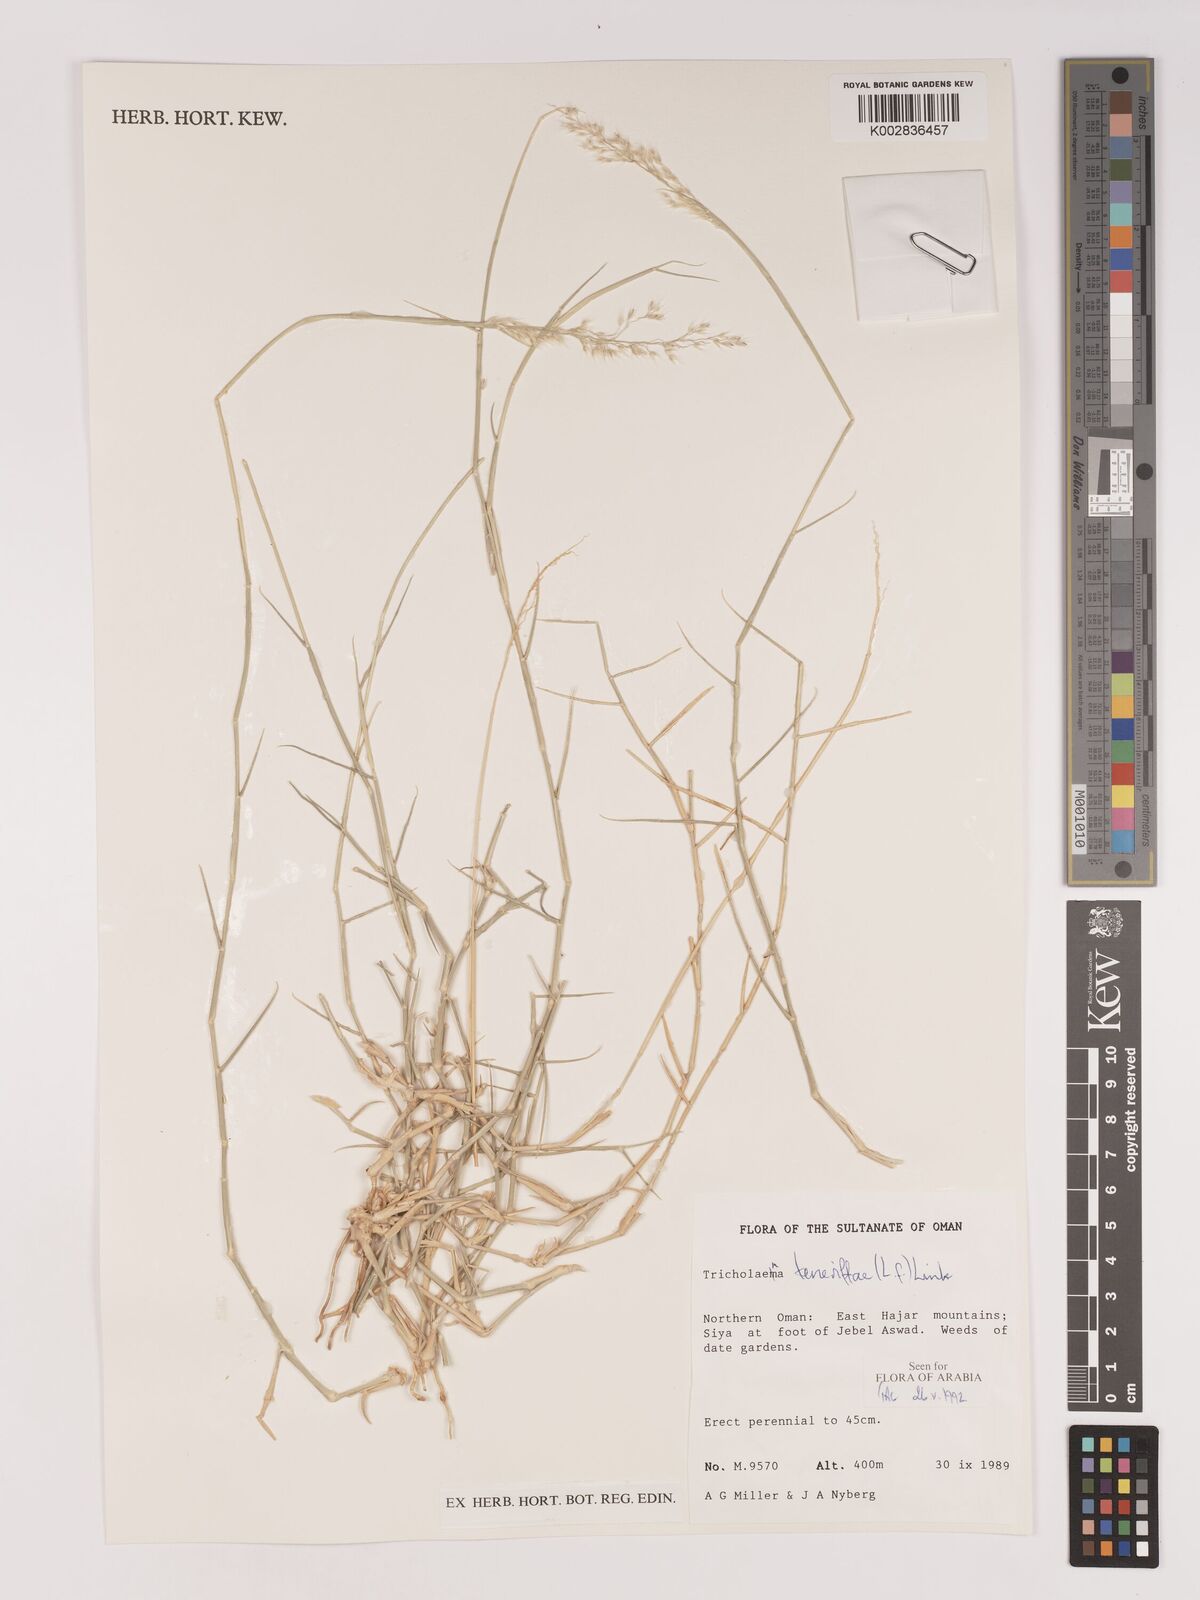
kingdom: Plantae
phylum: Tracheophyta
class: Liliopsida
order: Poales
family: Poaceae
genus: Tricholaena
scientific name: Tricholaena teneriffae
